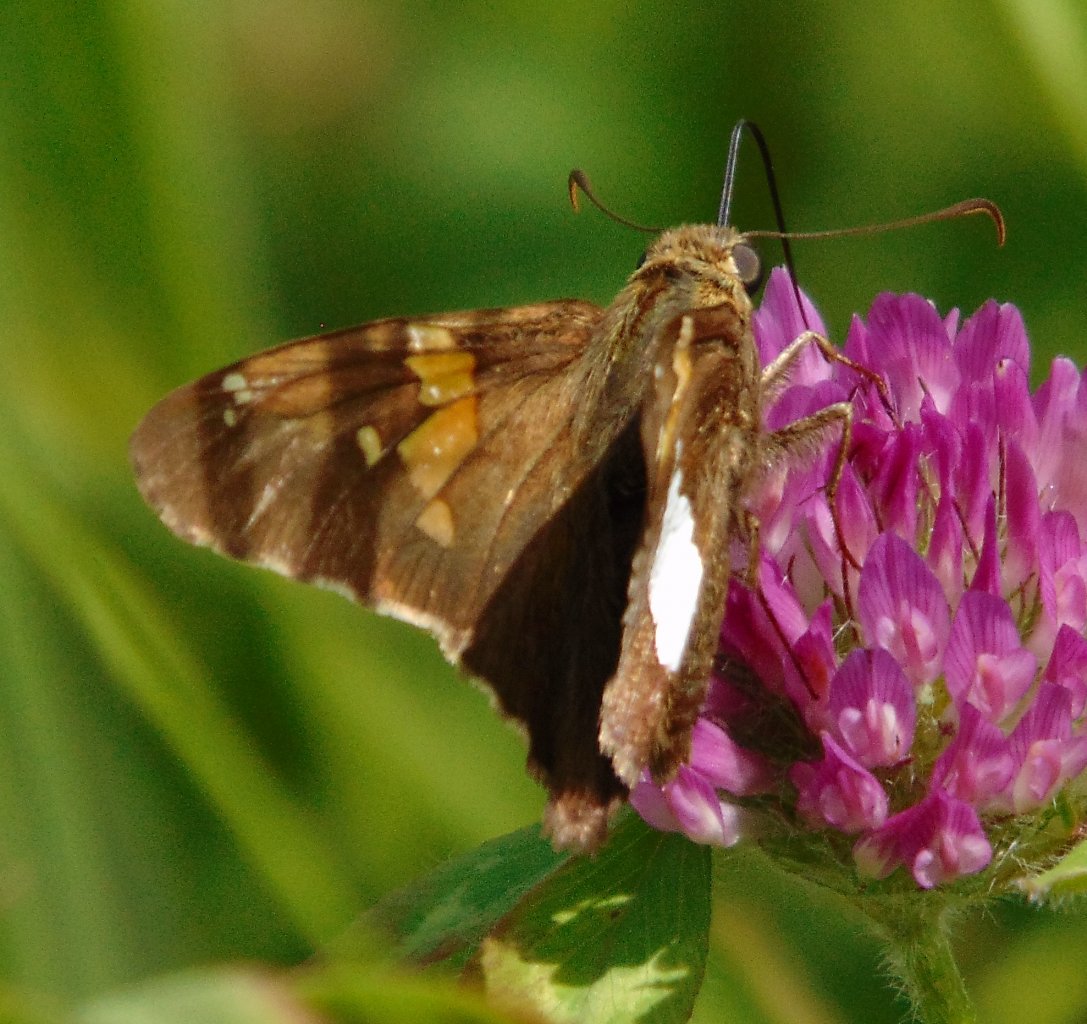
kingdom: Animalia
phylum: Arthropoda
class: Insecta
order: Lepidoptera
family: Hesperiidae
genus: Epargyreus
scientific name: Epargyreus clarus
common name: Silver-spotted Skipper
